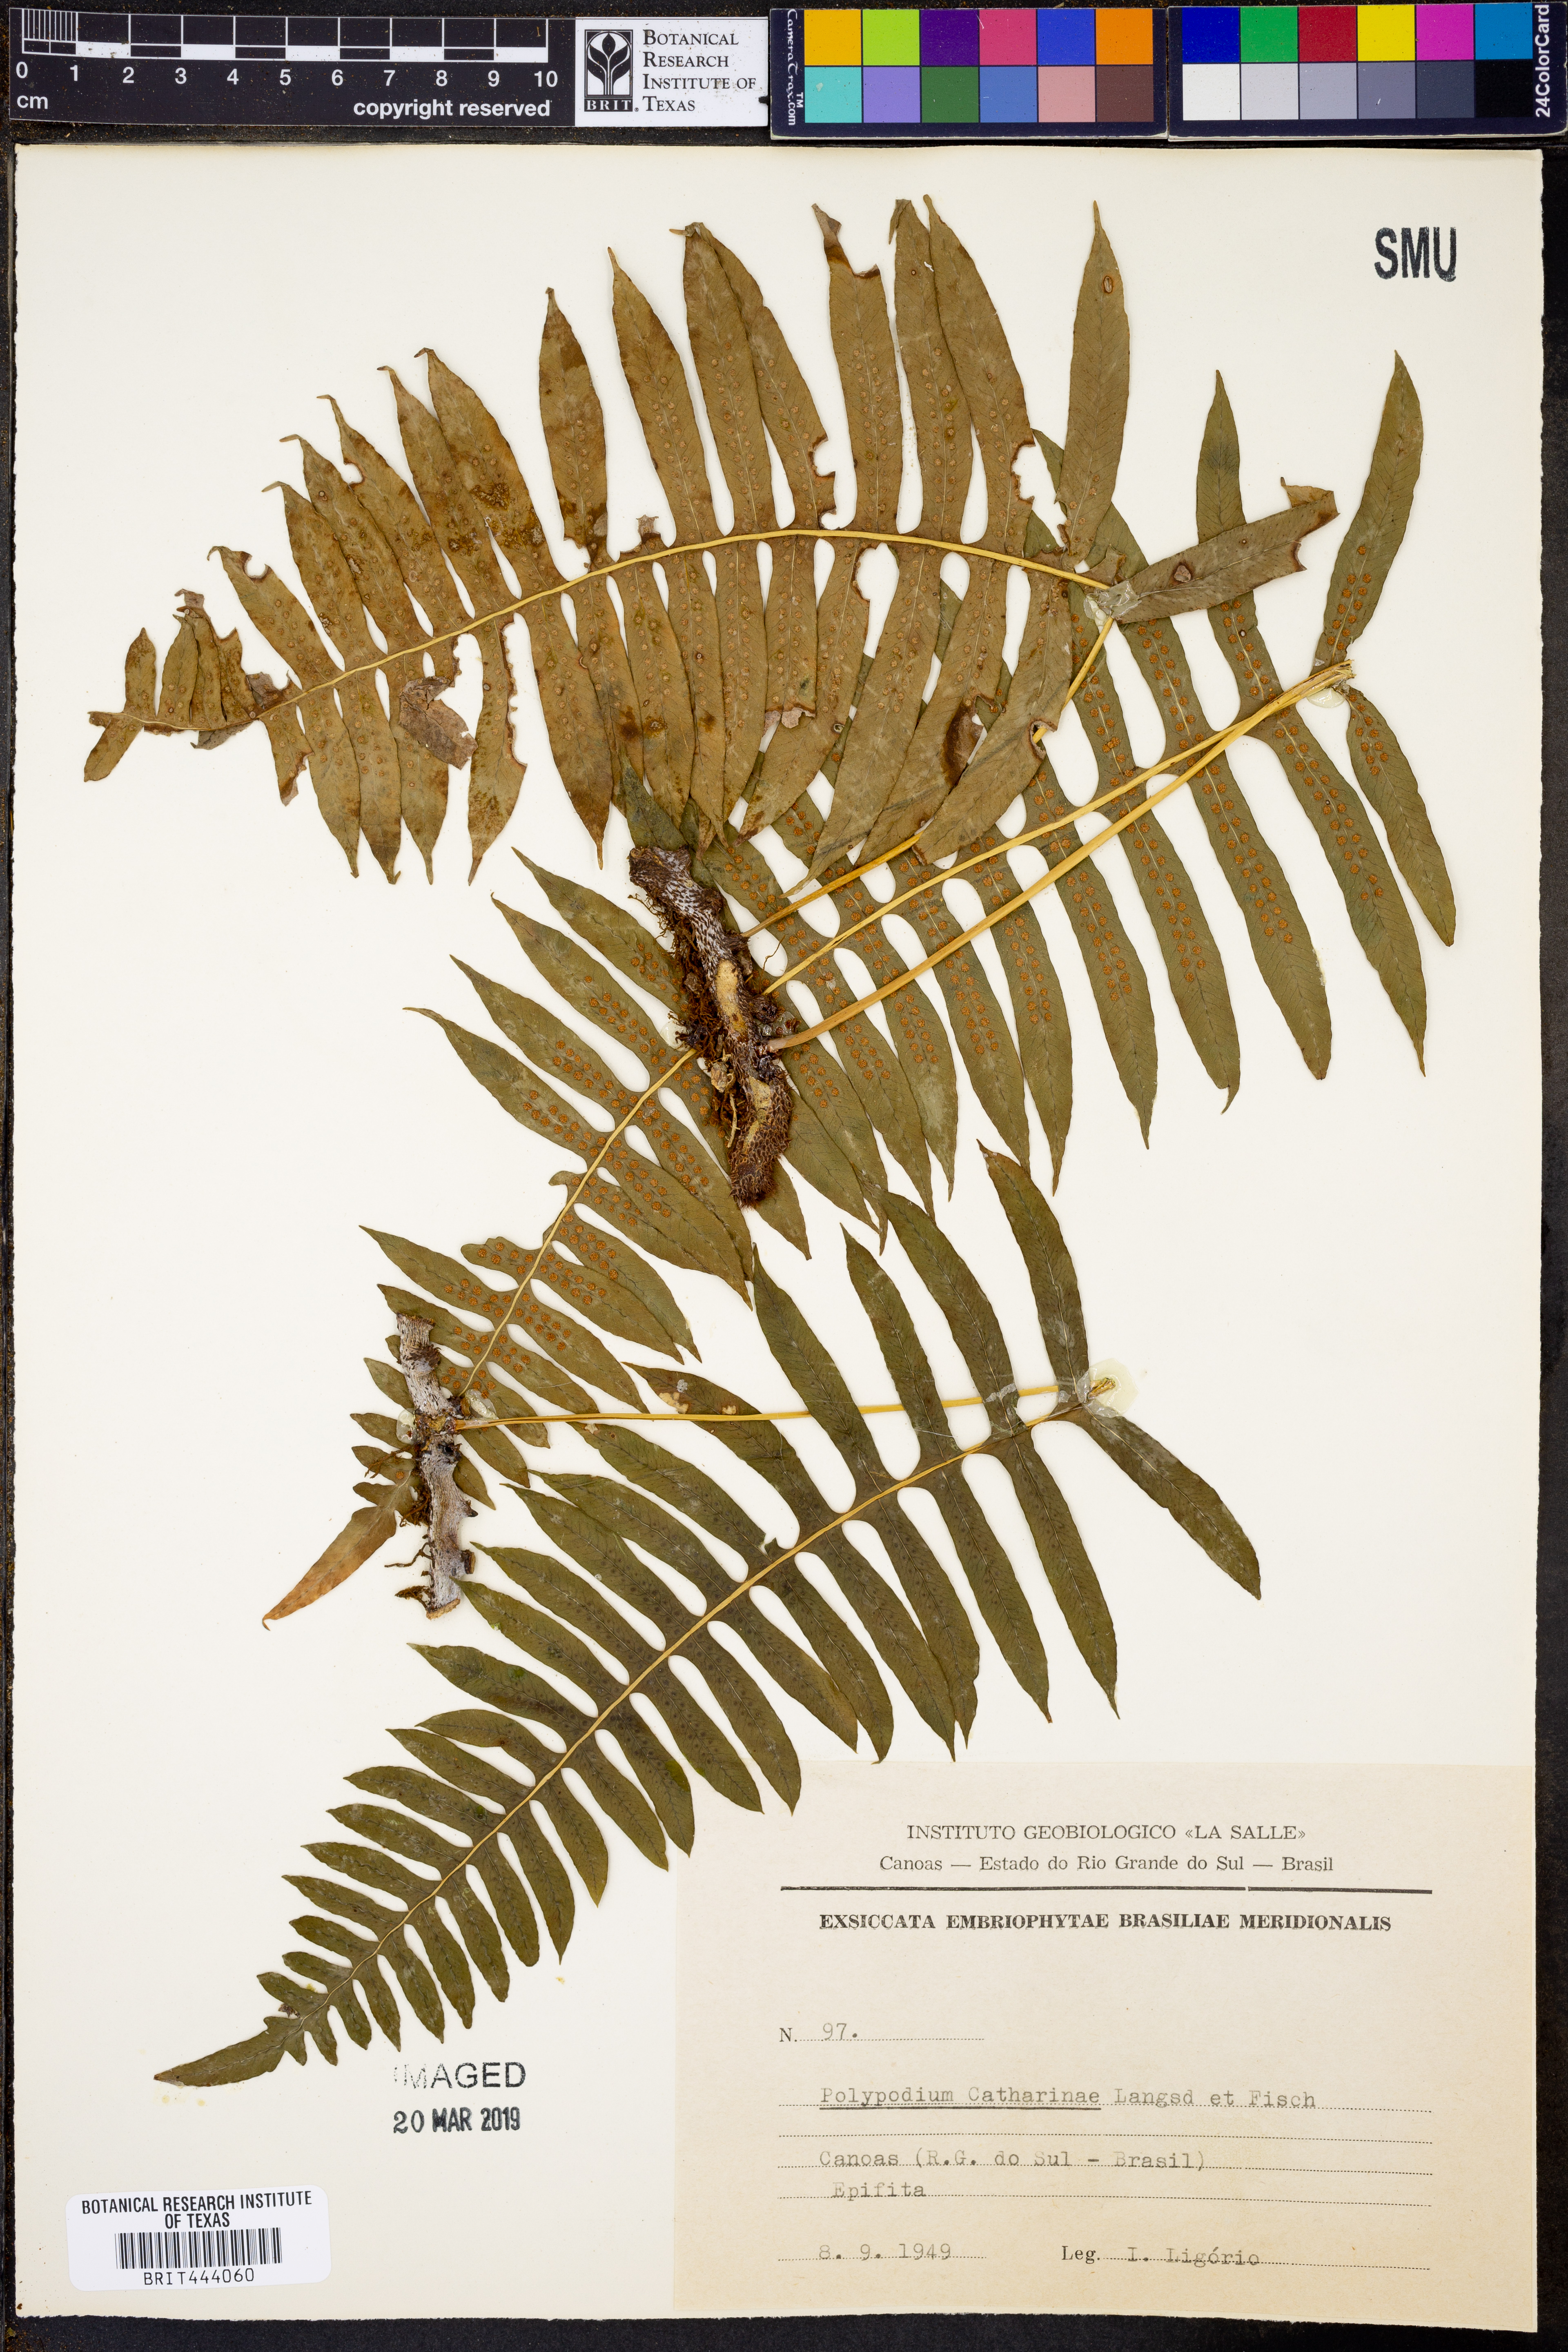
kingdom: Plantae
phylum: Tracheophyta
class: Polypodiopsida
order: Polypodiales
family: Polypodiaceae
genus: Serpocaulon
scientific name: Serpocaulon catharinae
